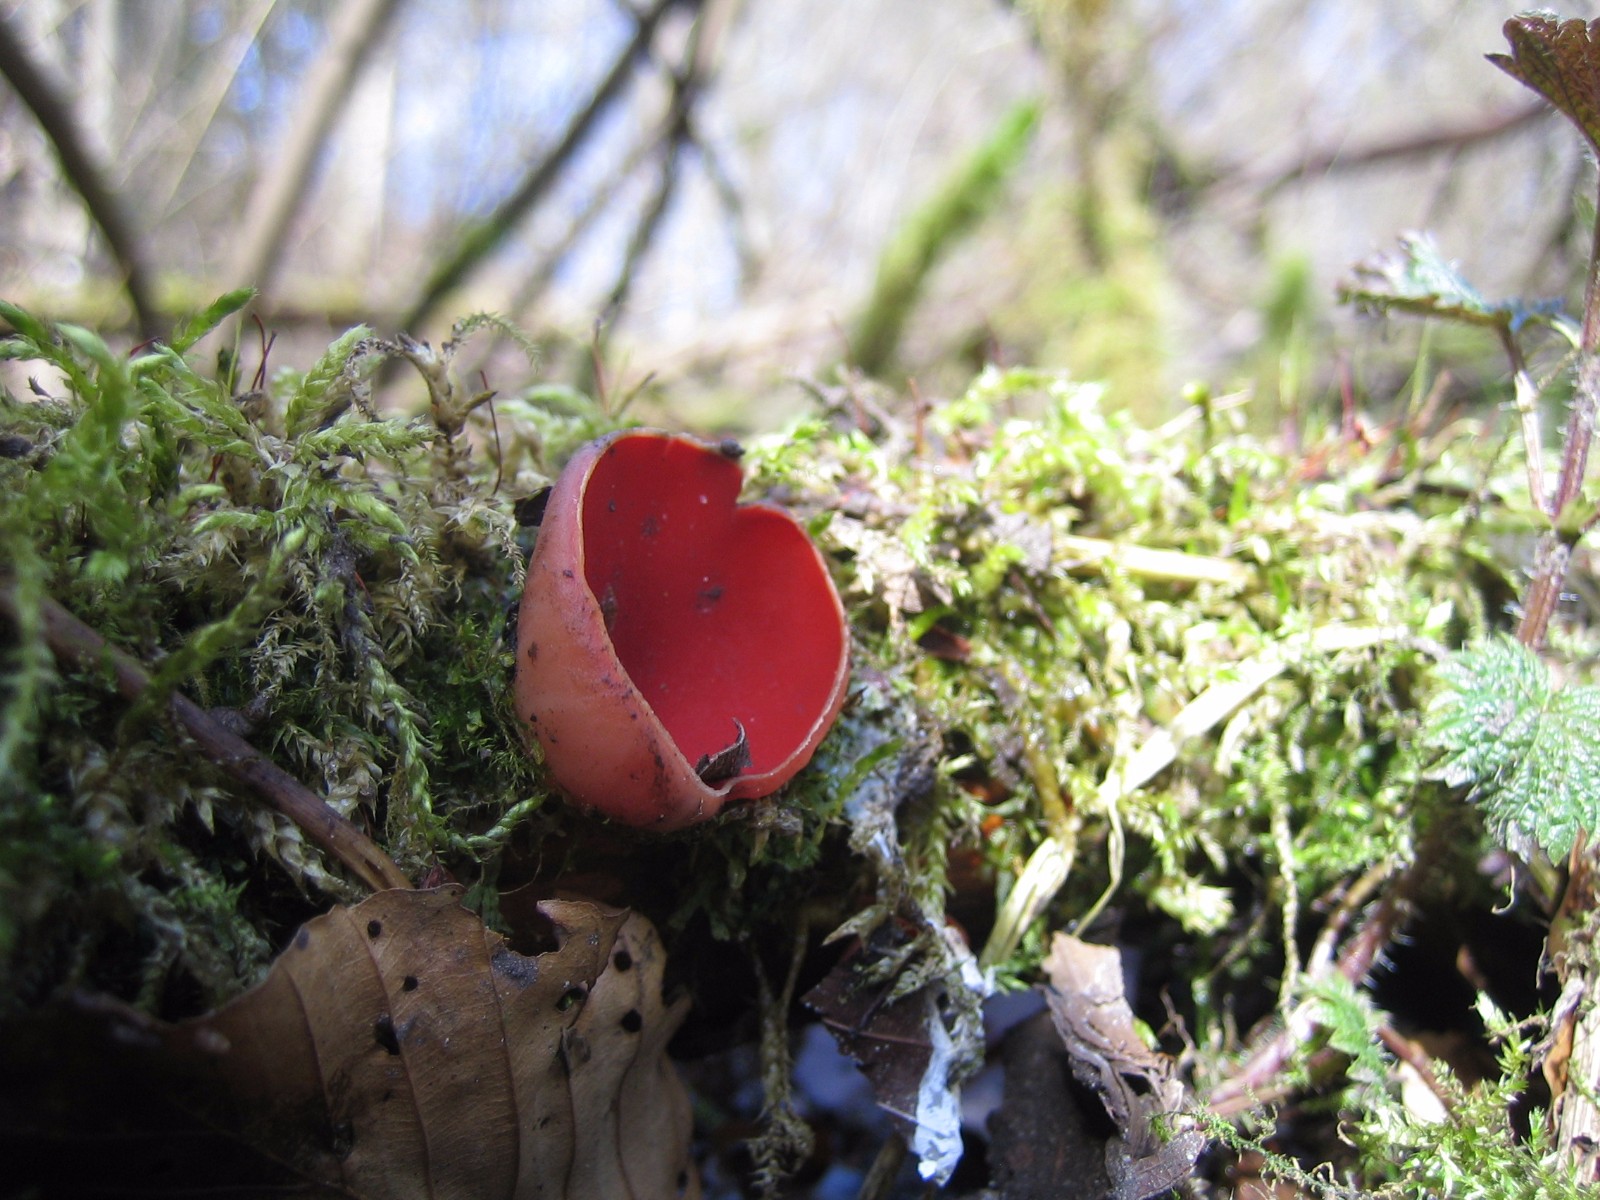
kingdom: Fungi
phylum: Ascomycota
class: Pezizomycetes
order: Pezizales
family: Sarcoscyphaceae
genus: Sarcoscypha
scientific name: Sarcoscypha austriaca
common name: krølhåret pragtbæger
